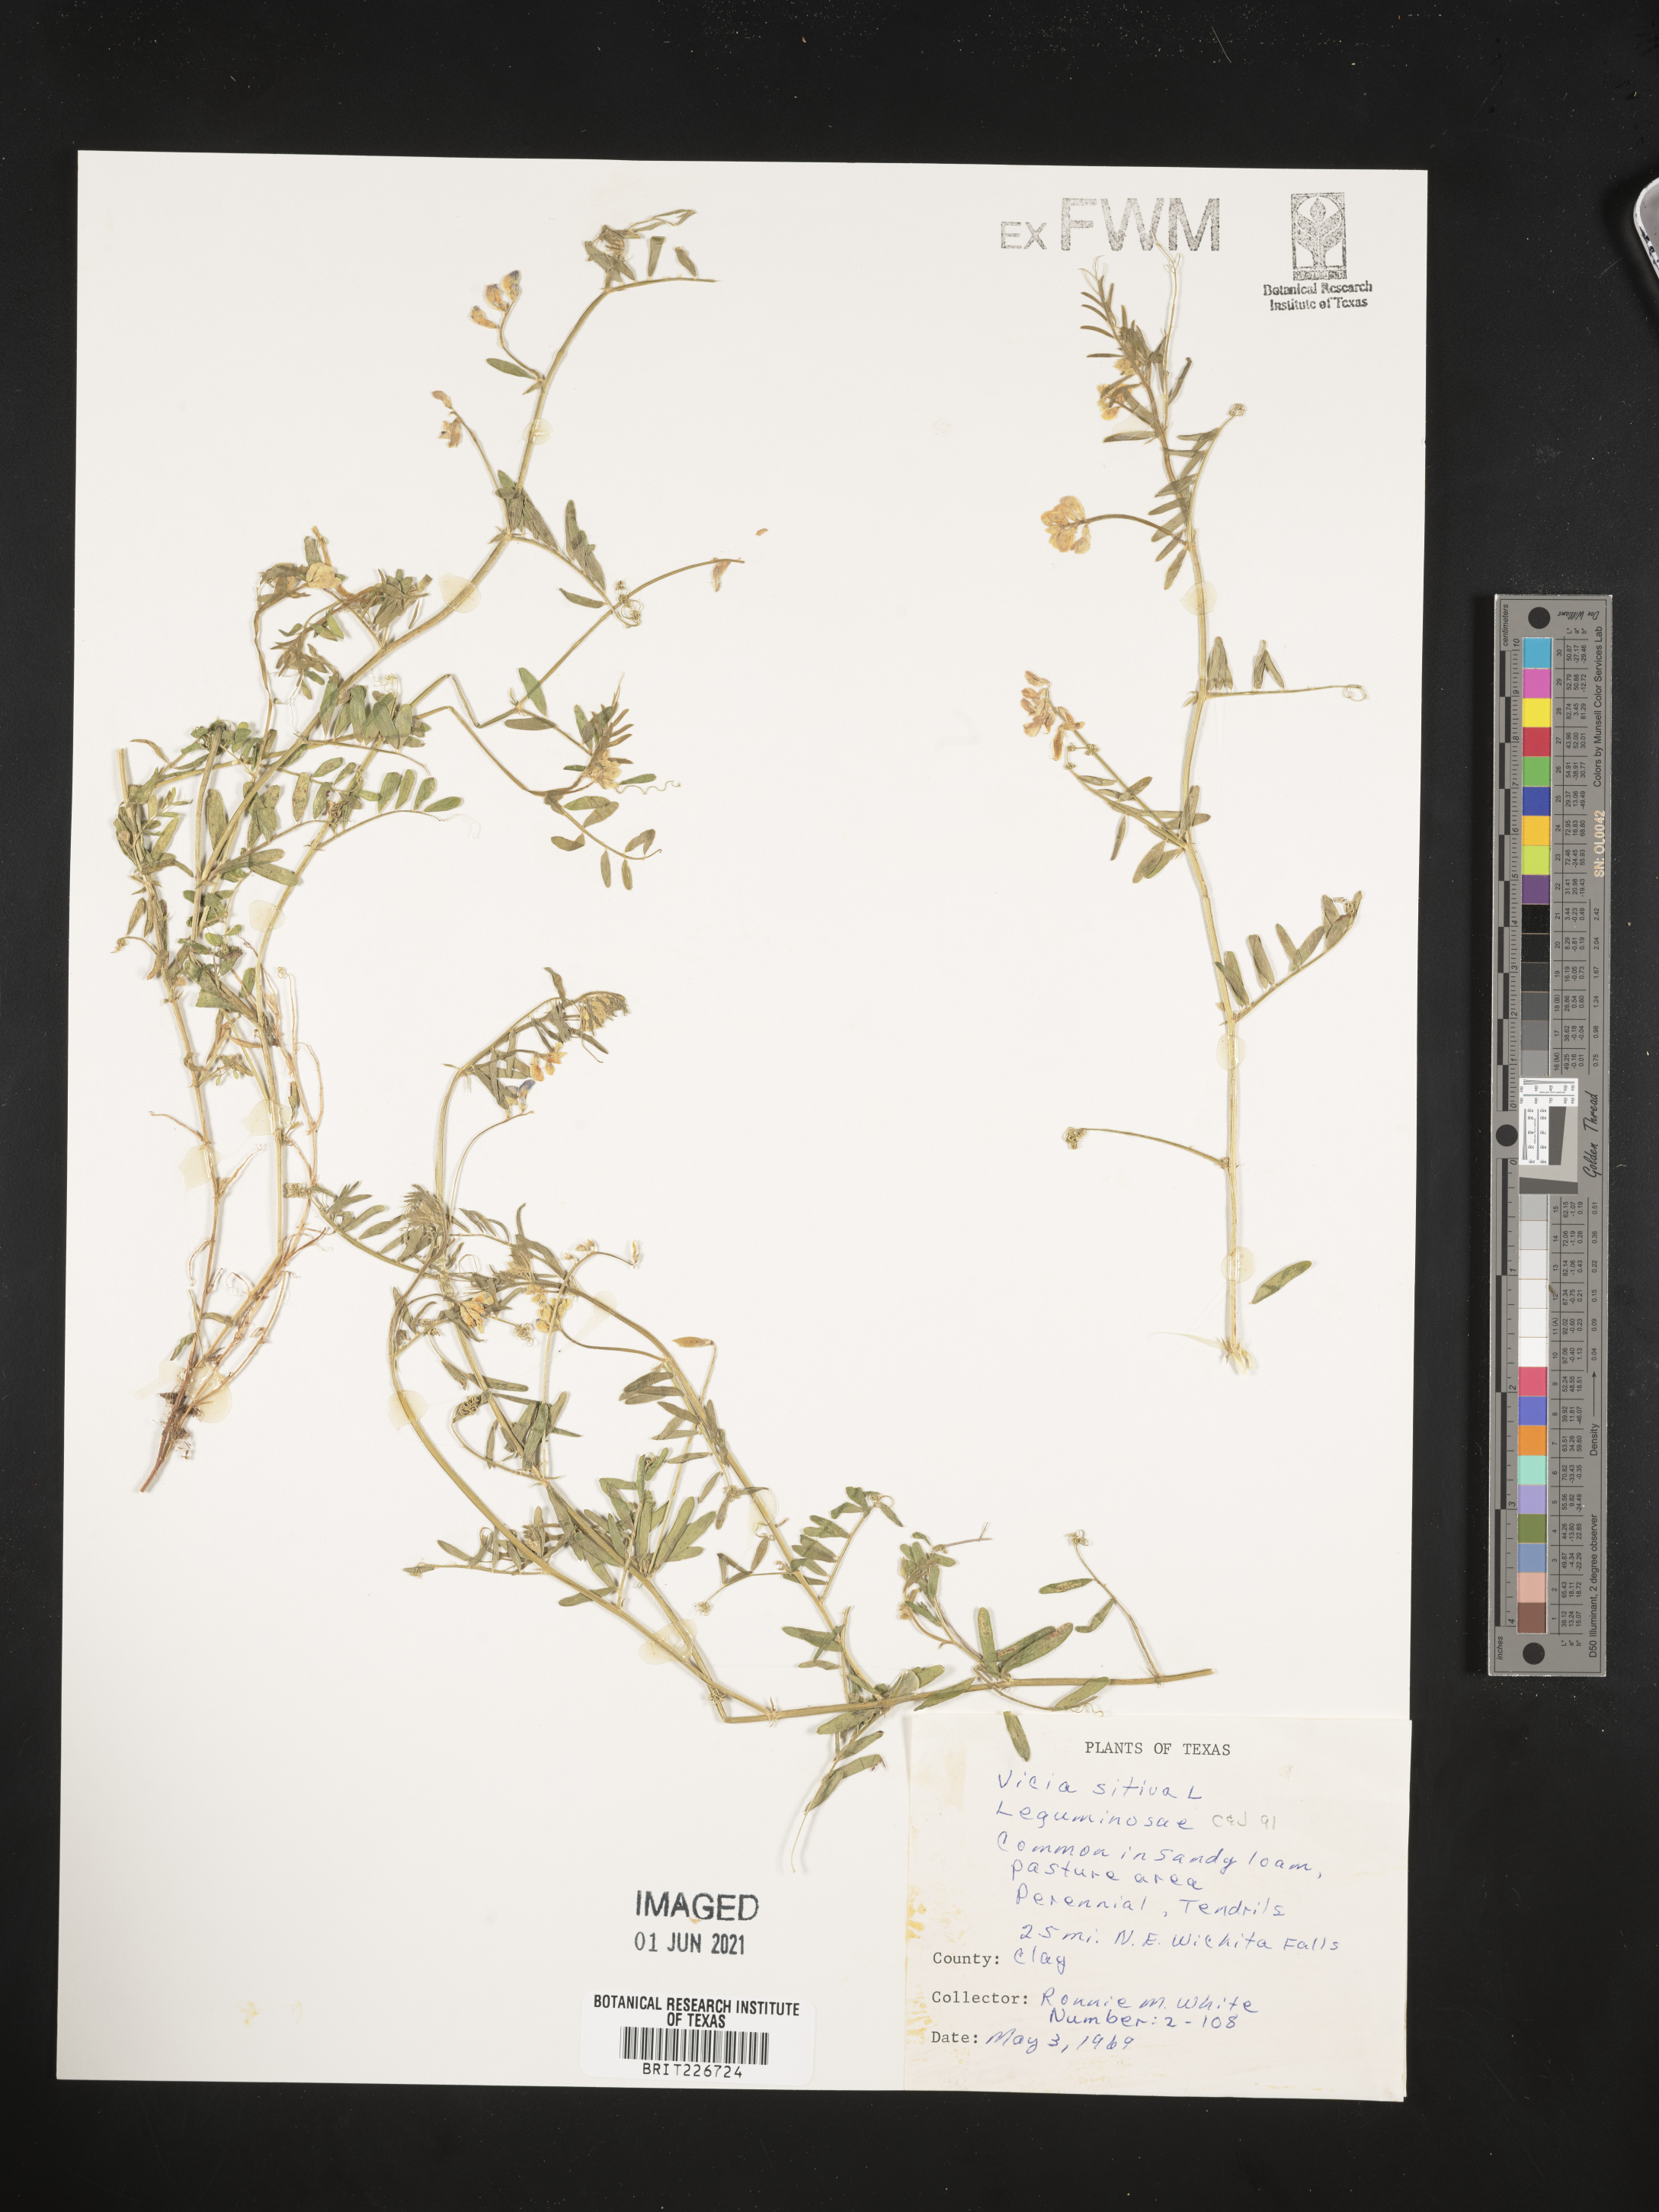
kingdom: Plantae
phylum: Tracheophyta
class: Magnoliopsida
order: Fabales
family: Fabaceae
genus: Vicia
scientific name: Vicia sativa
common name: Garden vetch
